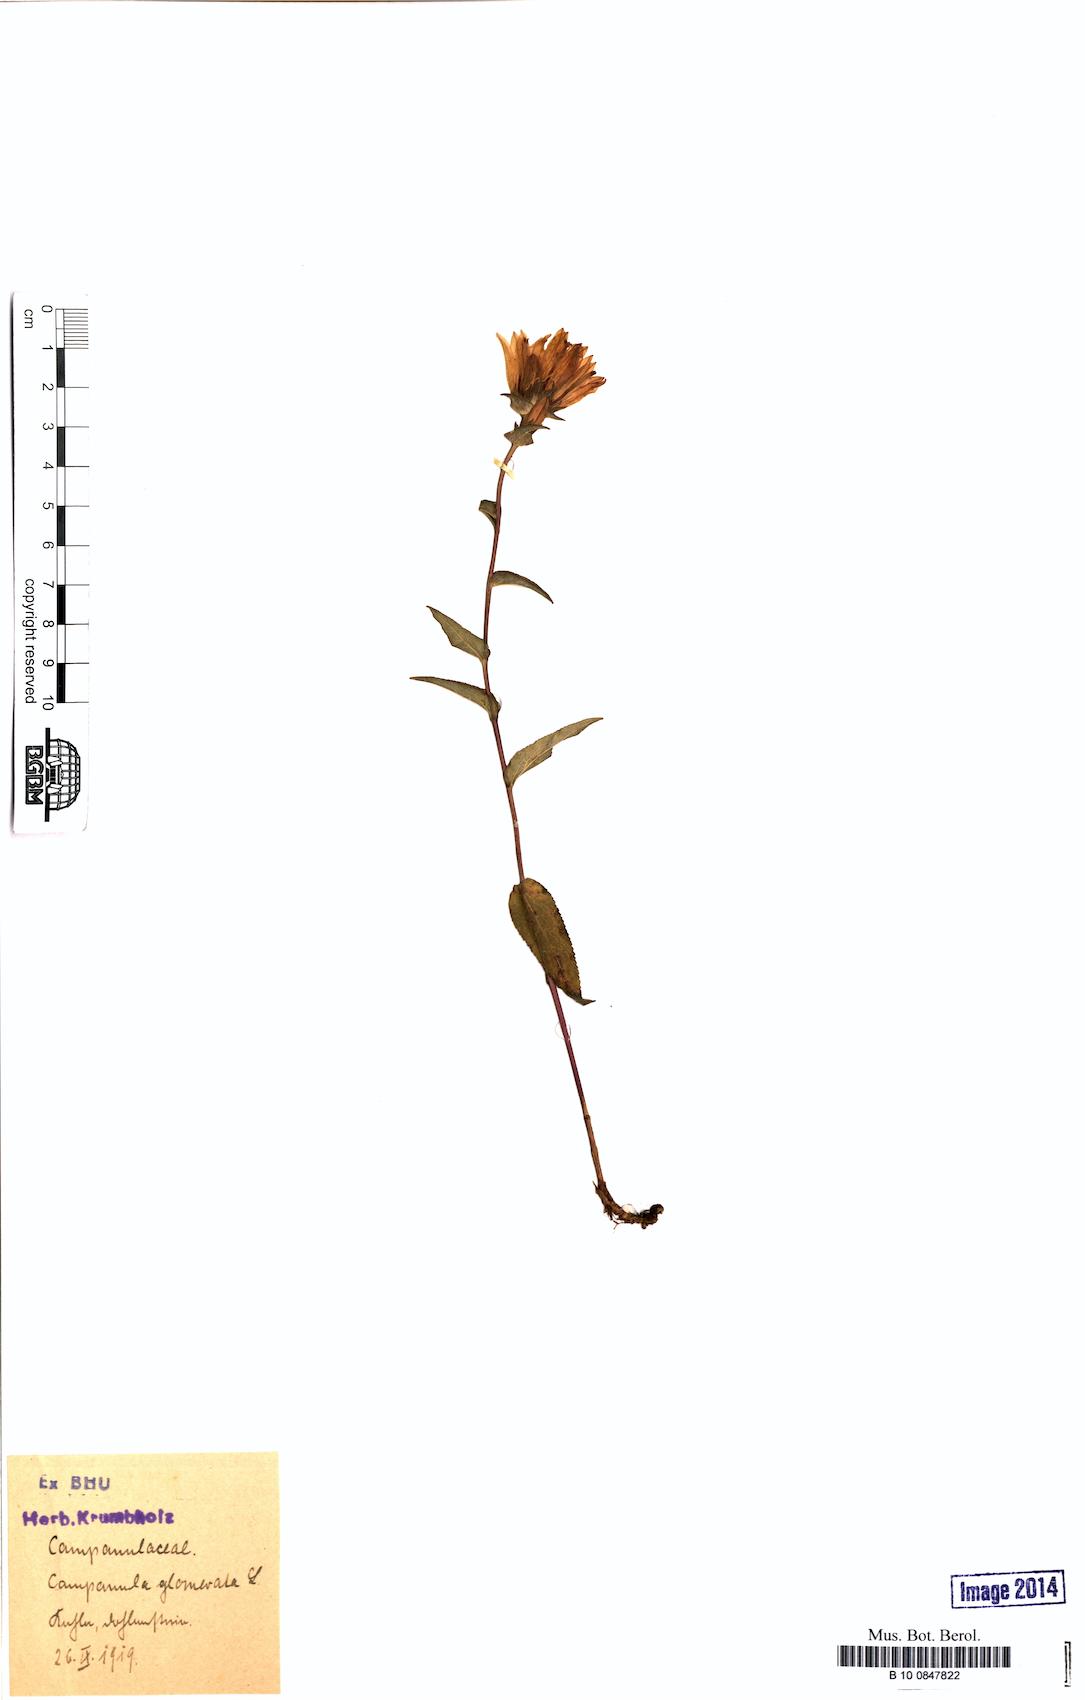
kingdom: Plantae
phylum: Tracheophyta
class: Magnoliopsida
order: Asterales
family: Campanulaceae
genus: Campanula
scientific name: Campanula glomerata
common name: Clustered bellflower
